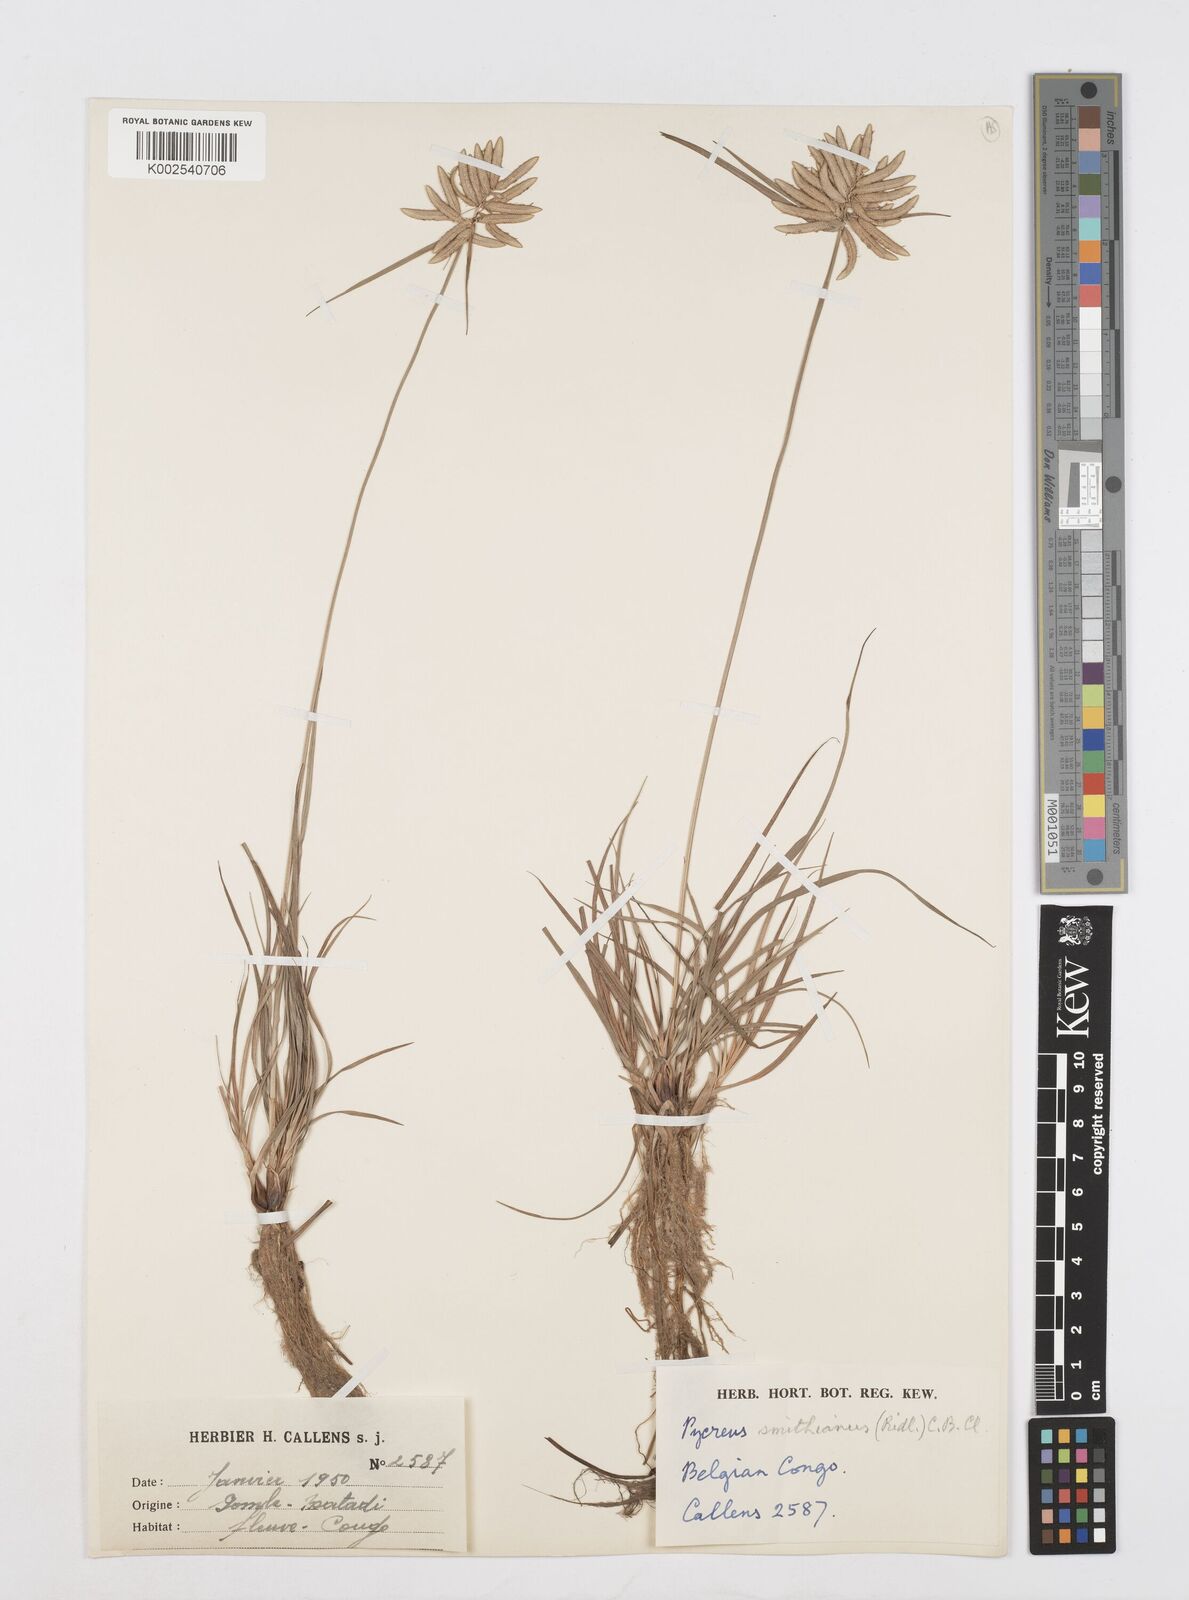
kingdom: Plantae
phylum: Tracheophyta
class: Liliopsida
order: Poales
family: Cyperaceae
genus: Cyperus
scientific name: Cyperus smithianus
